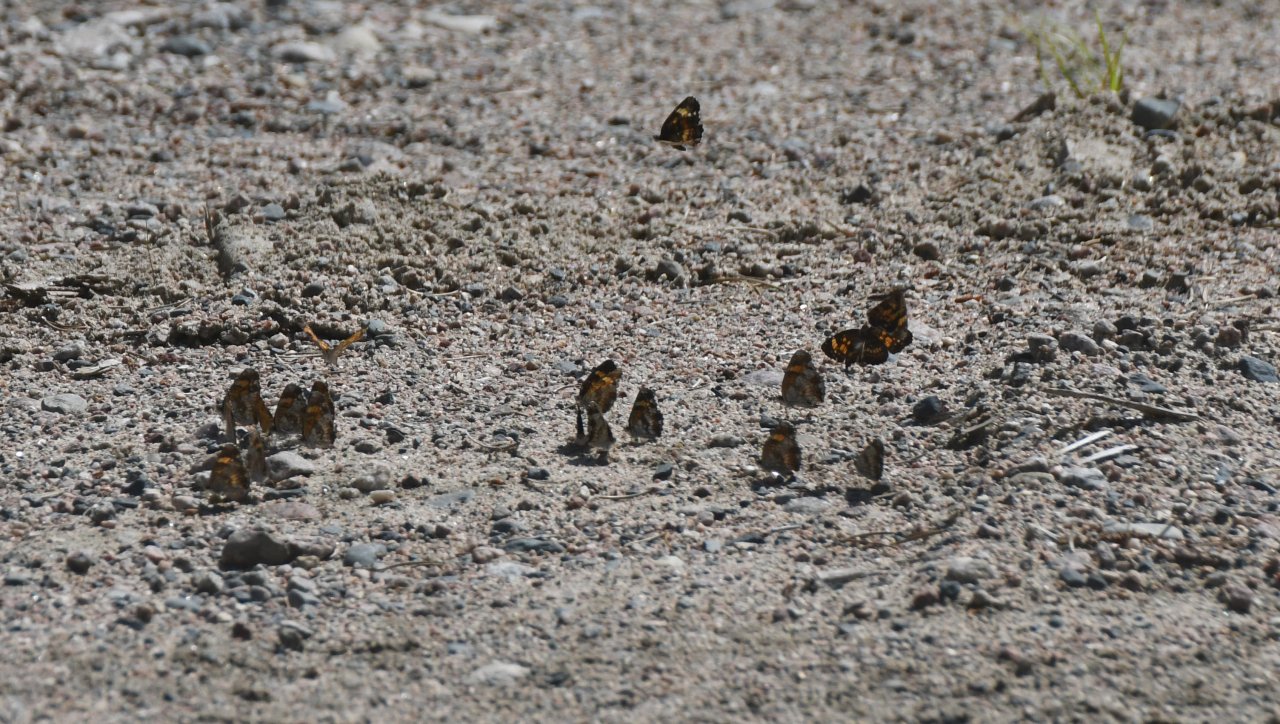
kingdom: Animalia
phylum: Arthropoda
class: Insecta
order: Lepidoptera
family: Nymphalidae
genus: Chlosyne
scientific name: Chlosyne nycteis
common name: Silvery Checkerspot
